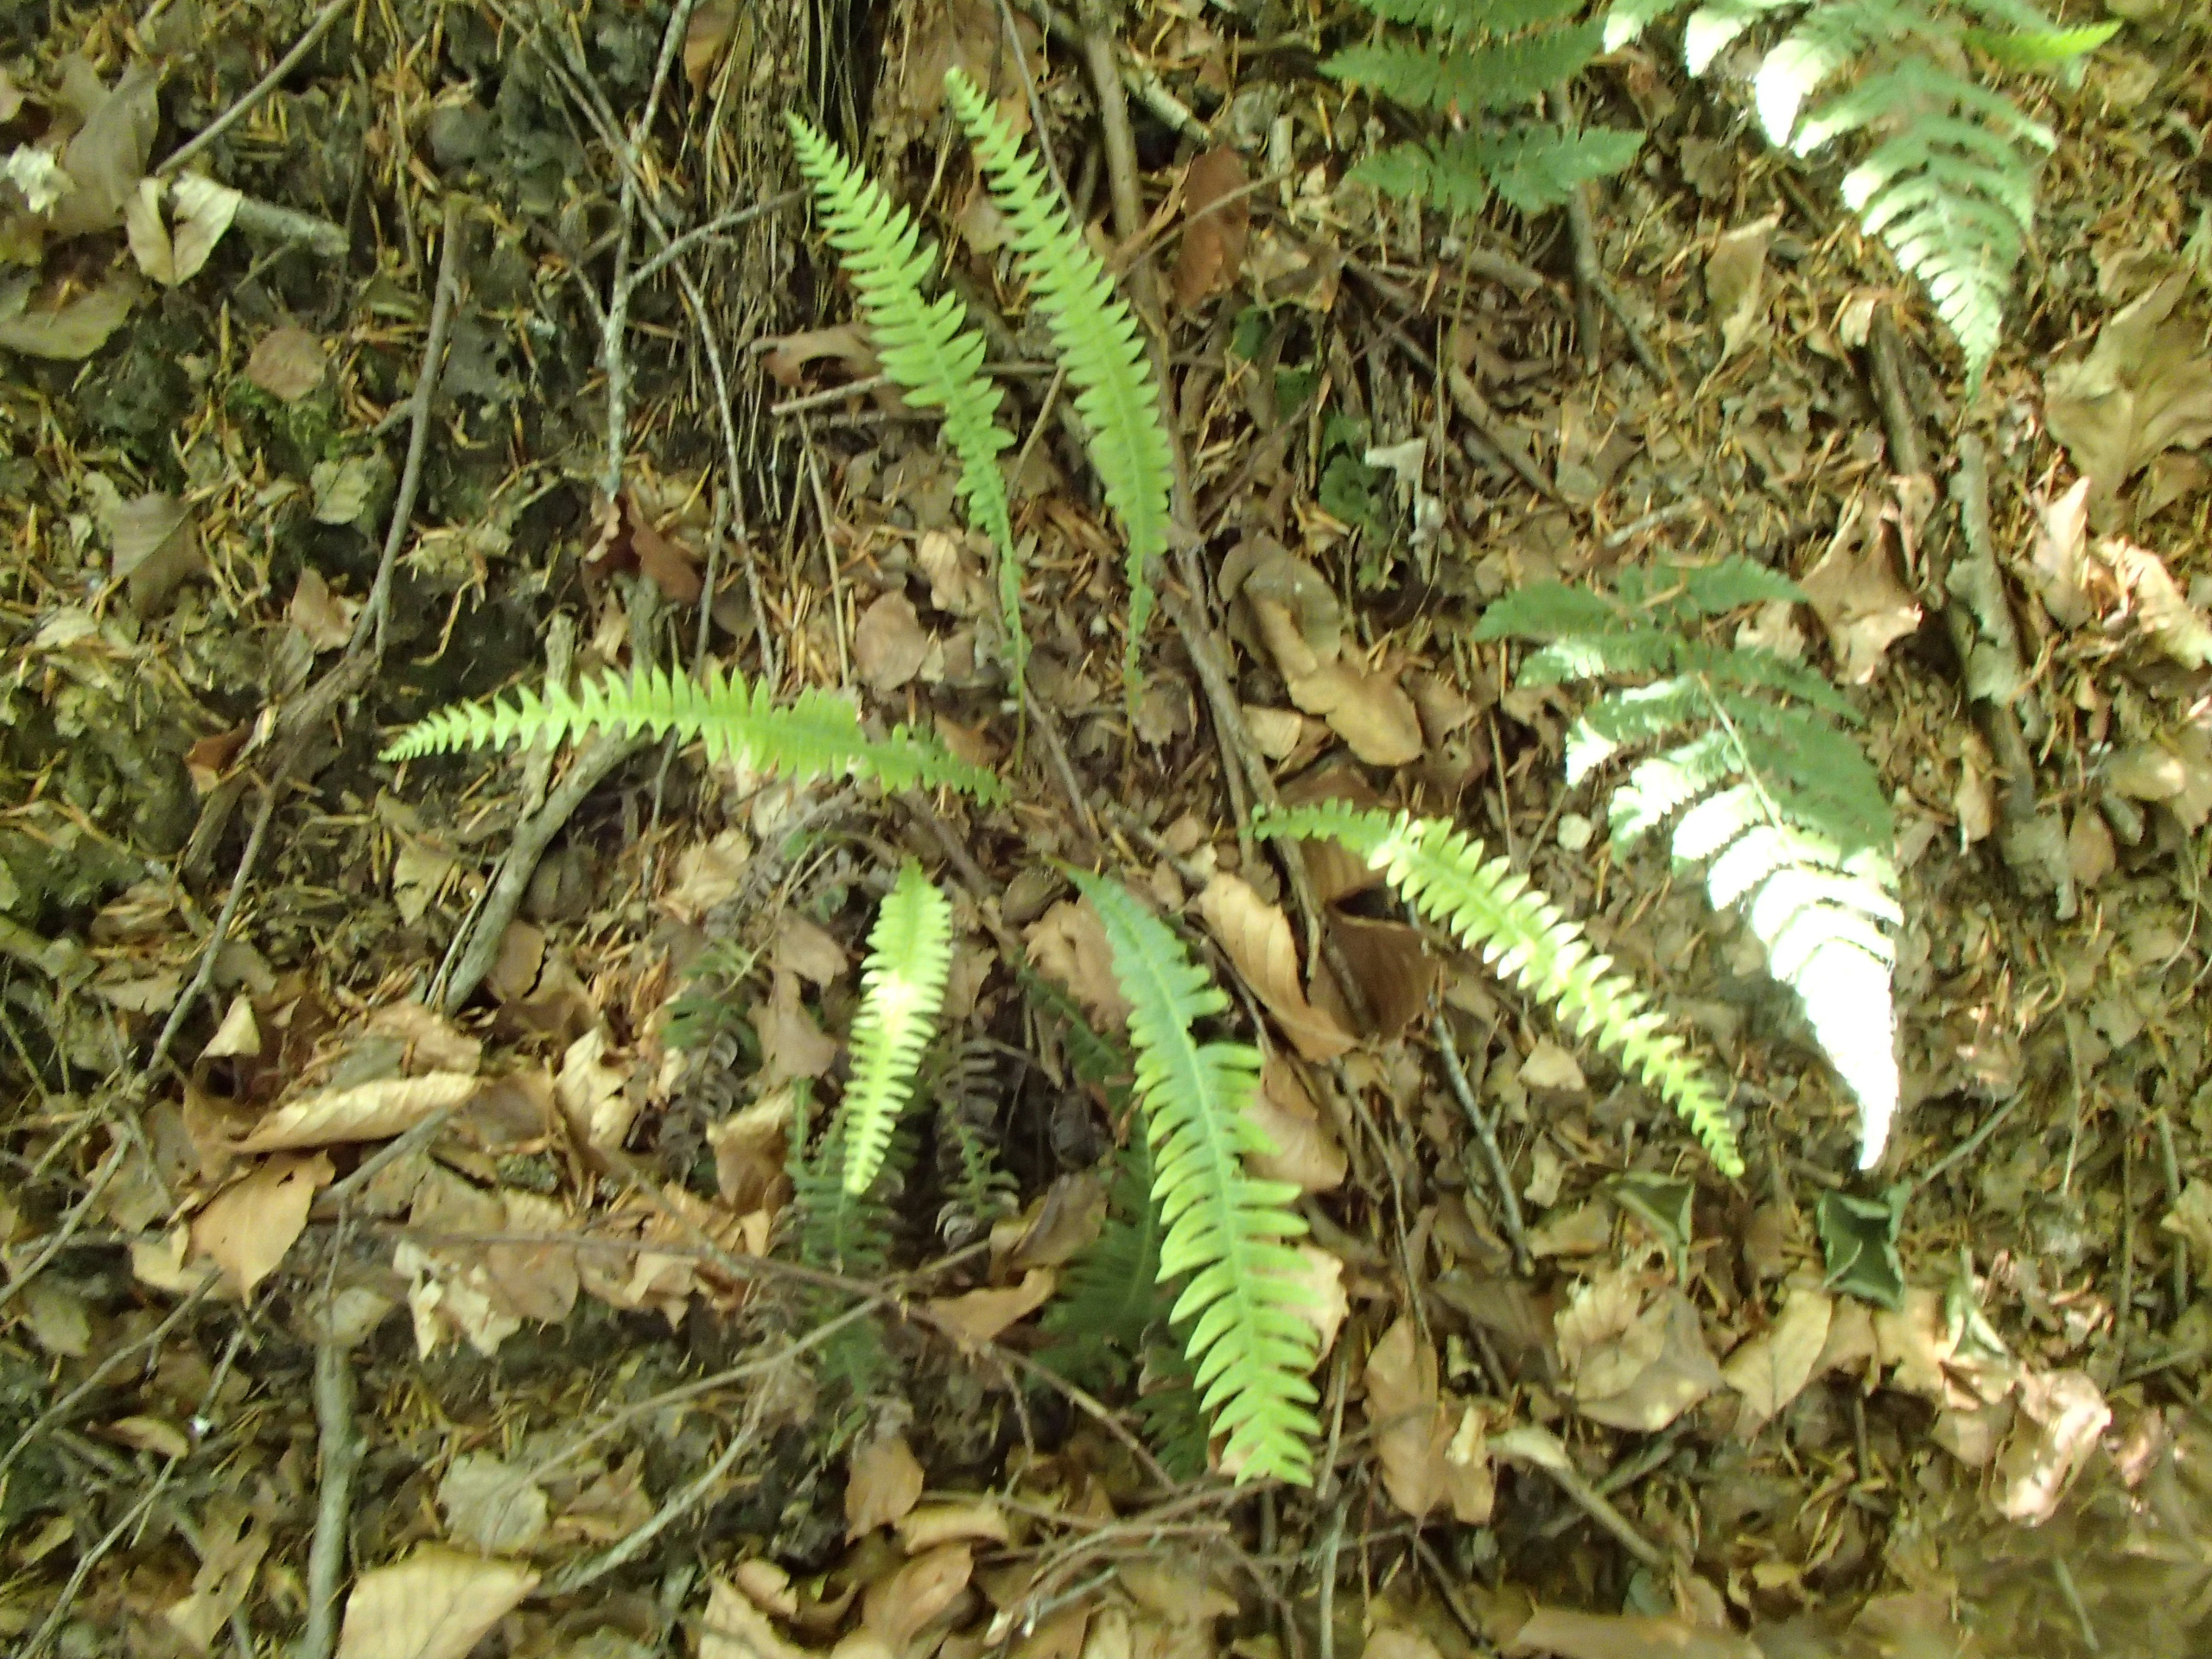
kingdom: Plantae
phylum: Tracheophyta
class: Polypodiopsida
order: Polypodiales
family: Blechnaceae
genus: Struthiopteris
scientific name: Struthiopteris spicant
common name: Kambregne
